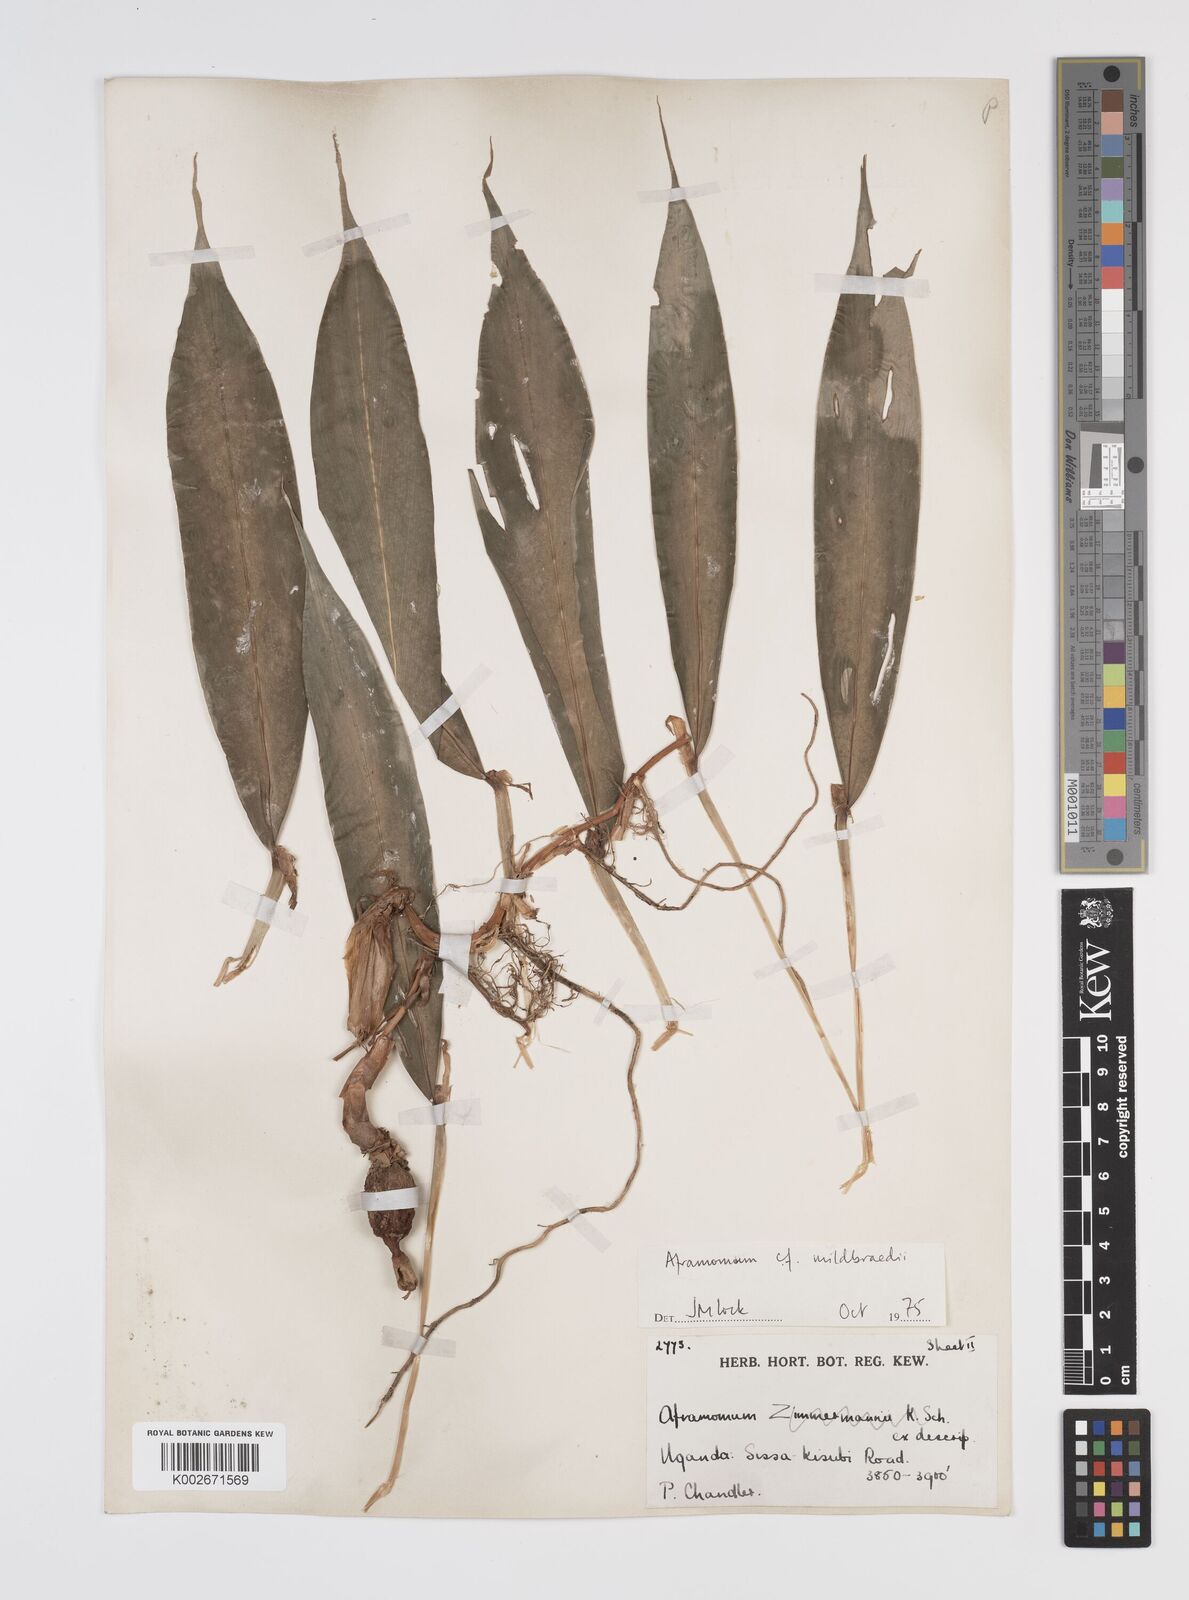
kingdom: Plantae
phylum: Tracheophyta
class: Liliopsida
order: Zingiberales
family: Zingiberaceae
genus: Aframomum
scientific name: Aframomum mildbraedii
